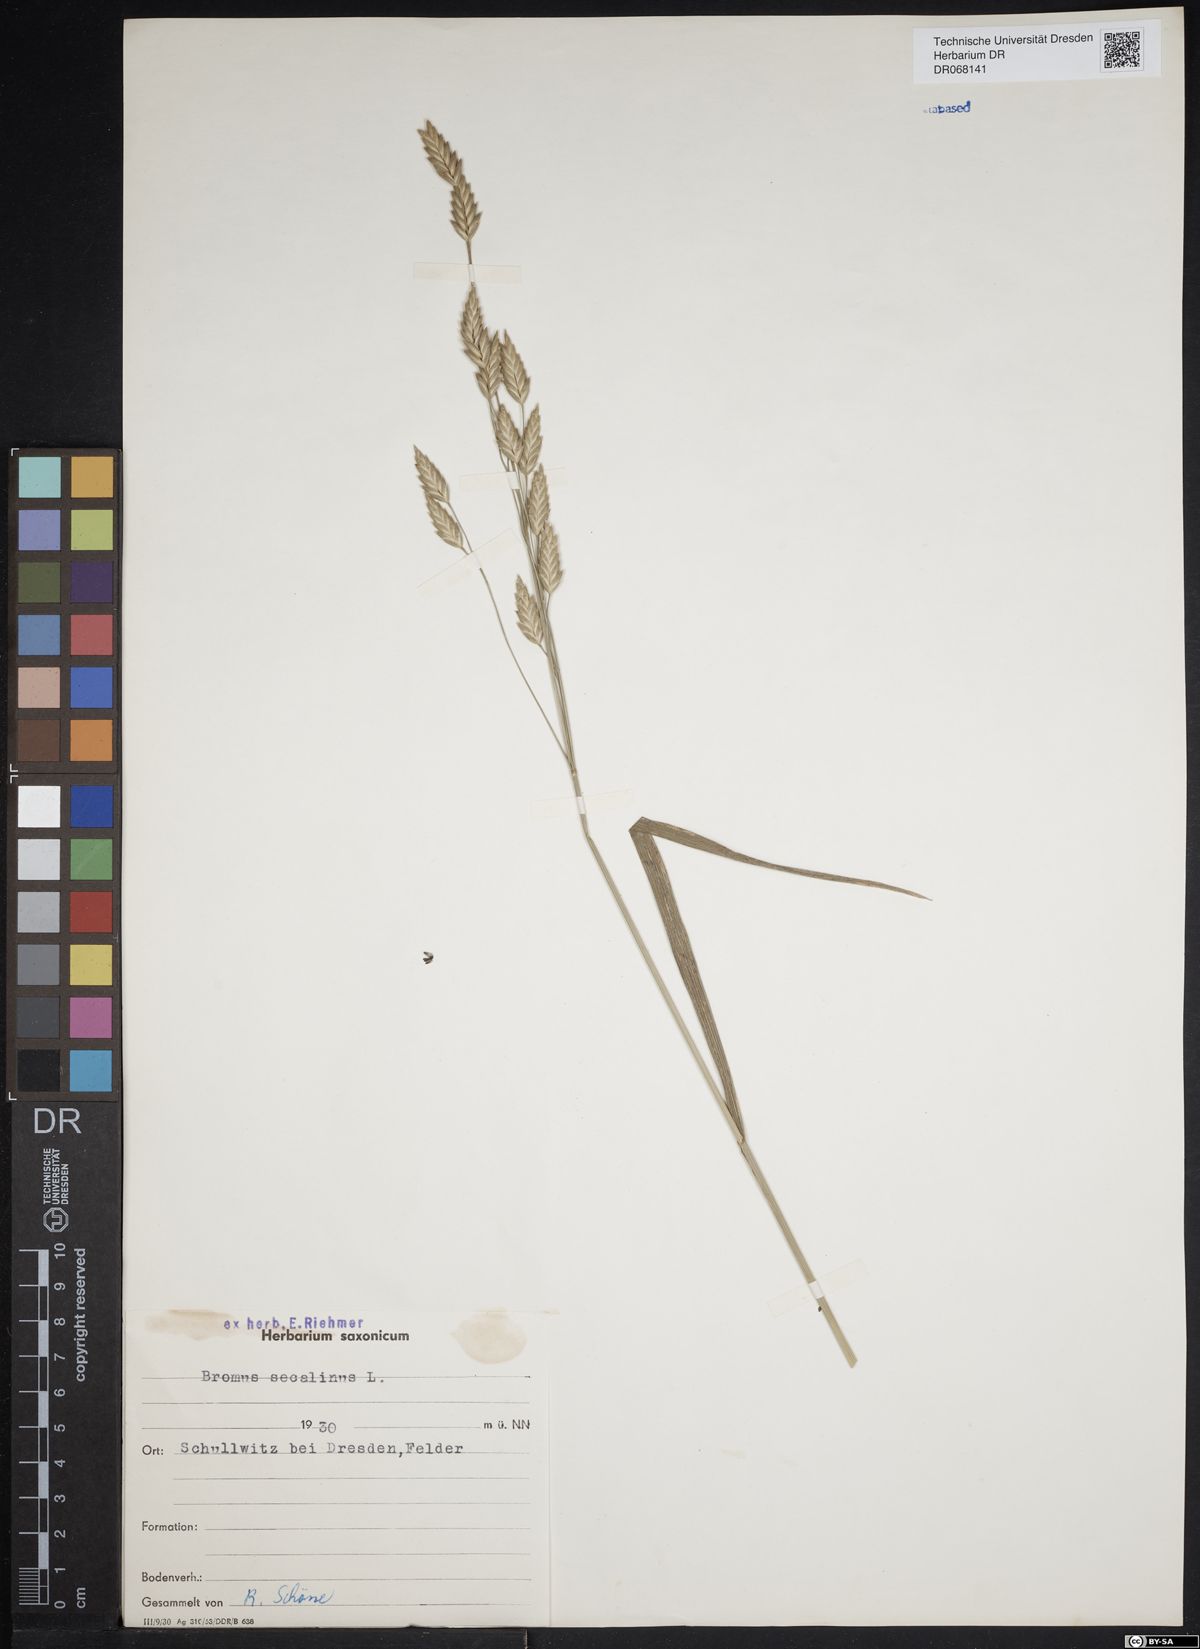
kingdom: Plantae
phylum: Tracheophyta
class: Liliopsida
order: Poales
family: Poaceae
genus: Bromus
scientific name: Bromus secalinus
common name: Rye brome
